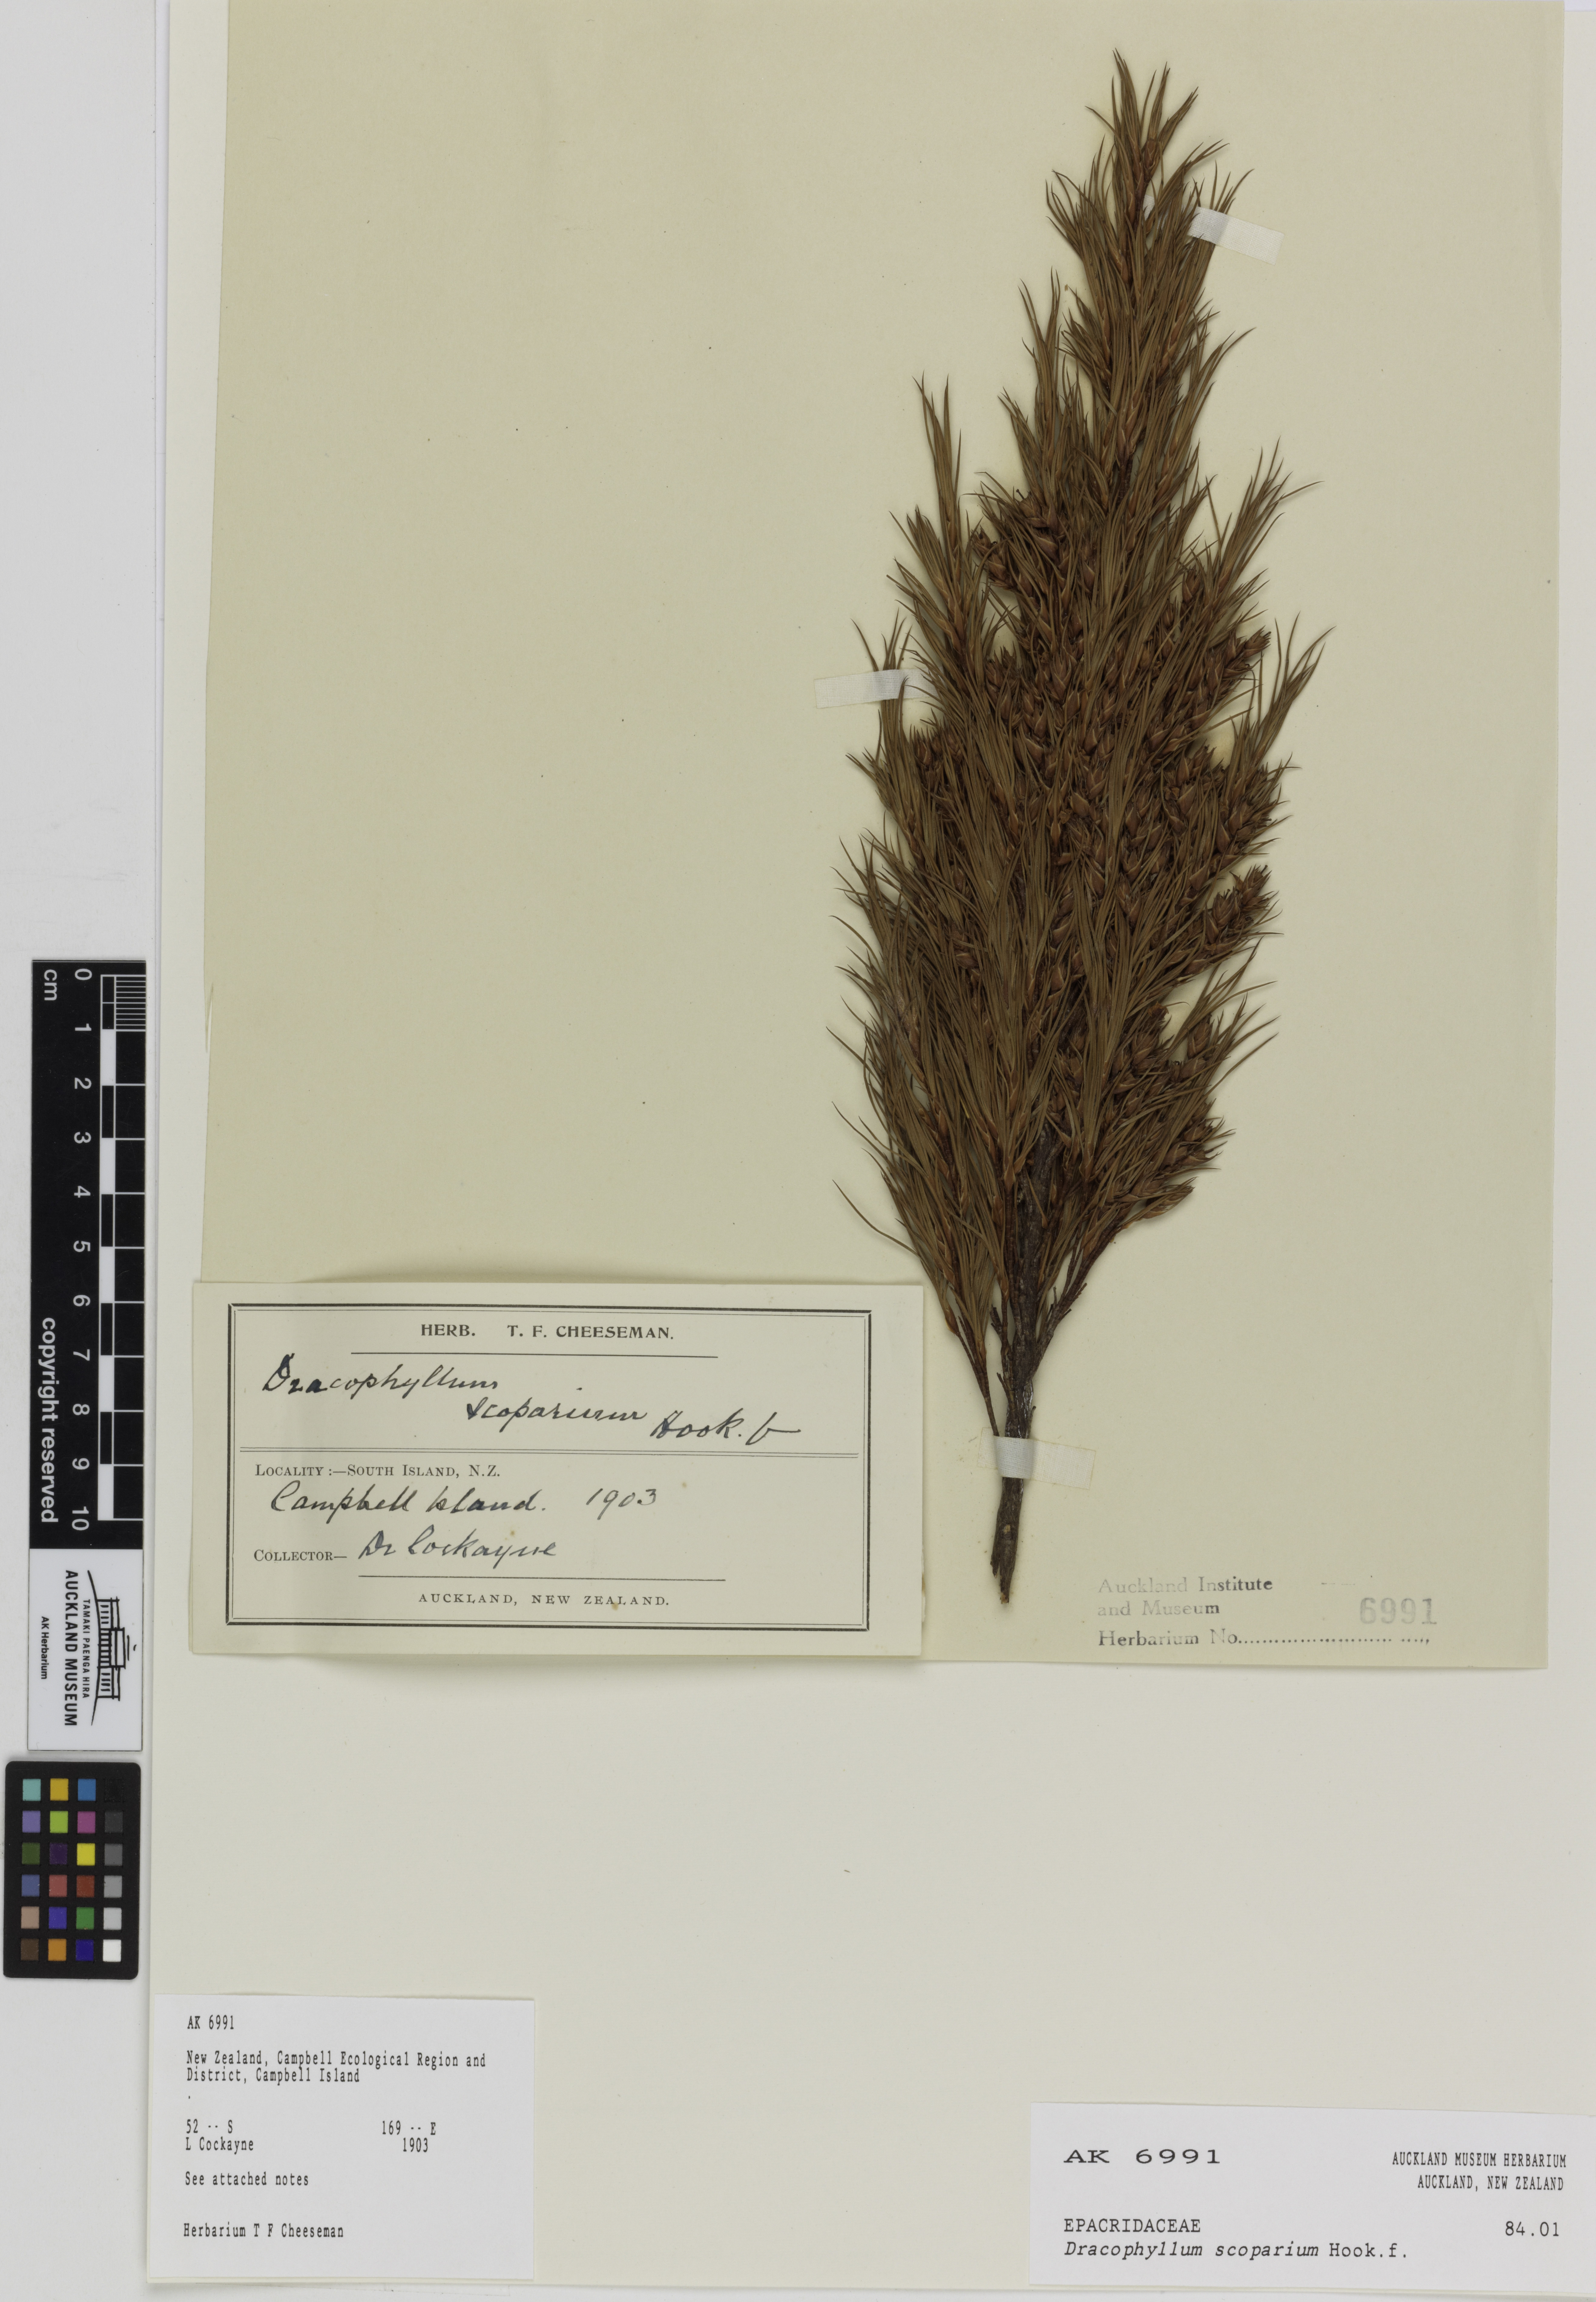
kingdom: Plantae
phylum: Tracheophyta
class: Magnoliopsida
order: Ericales
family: Ericaceae
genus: Dracophyllum
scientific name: Dracophyllum scoparium
